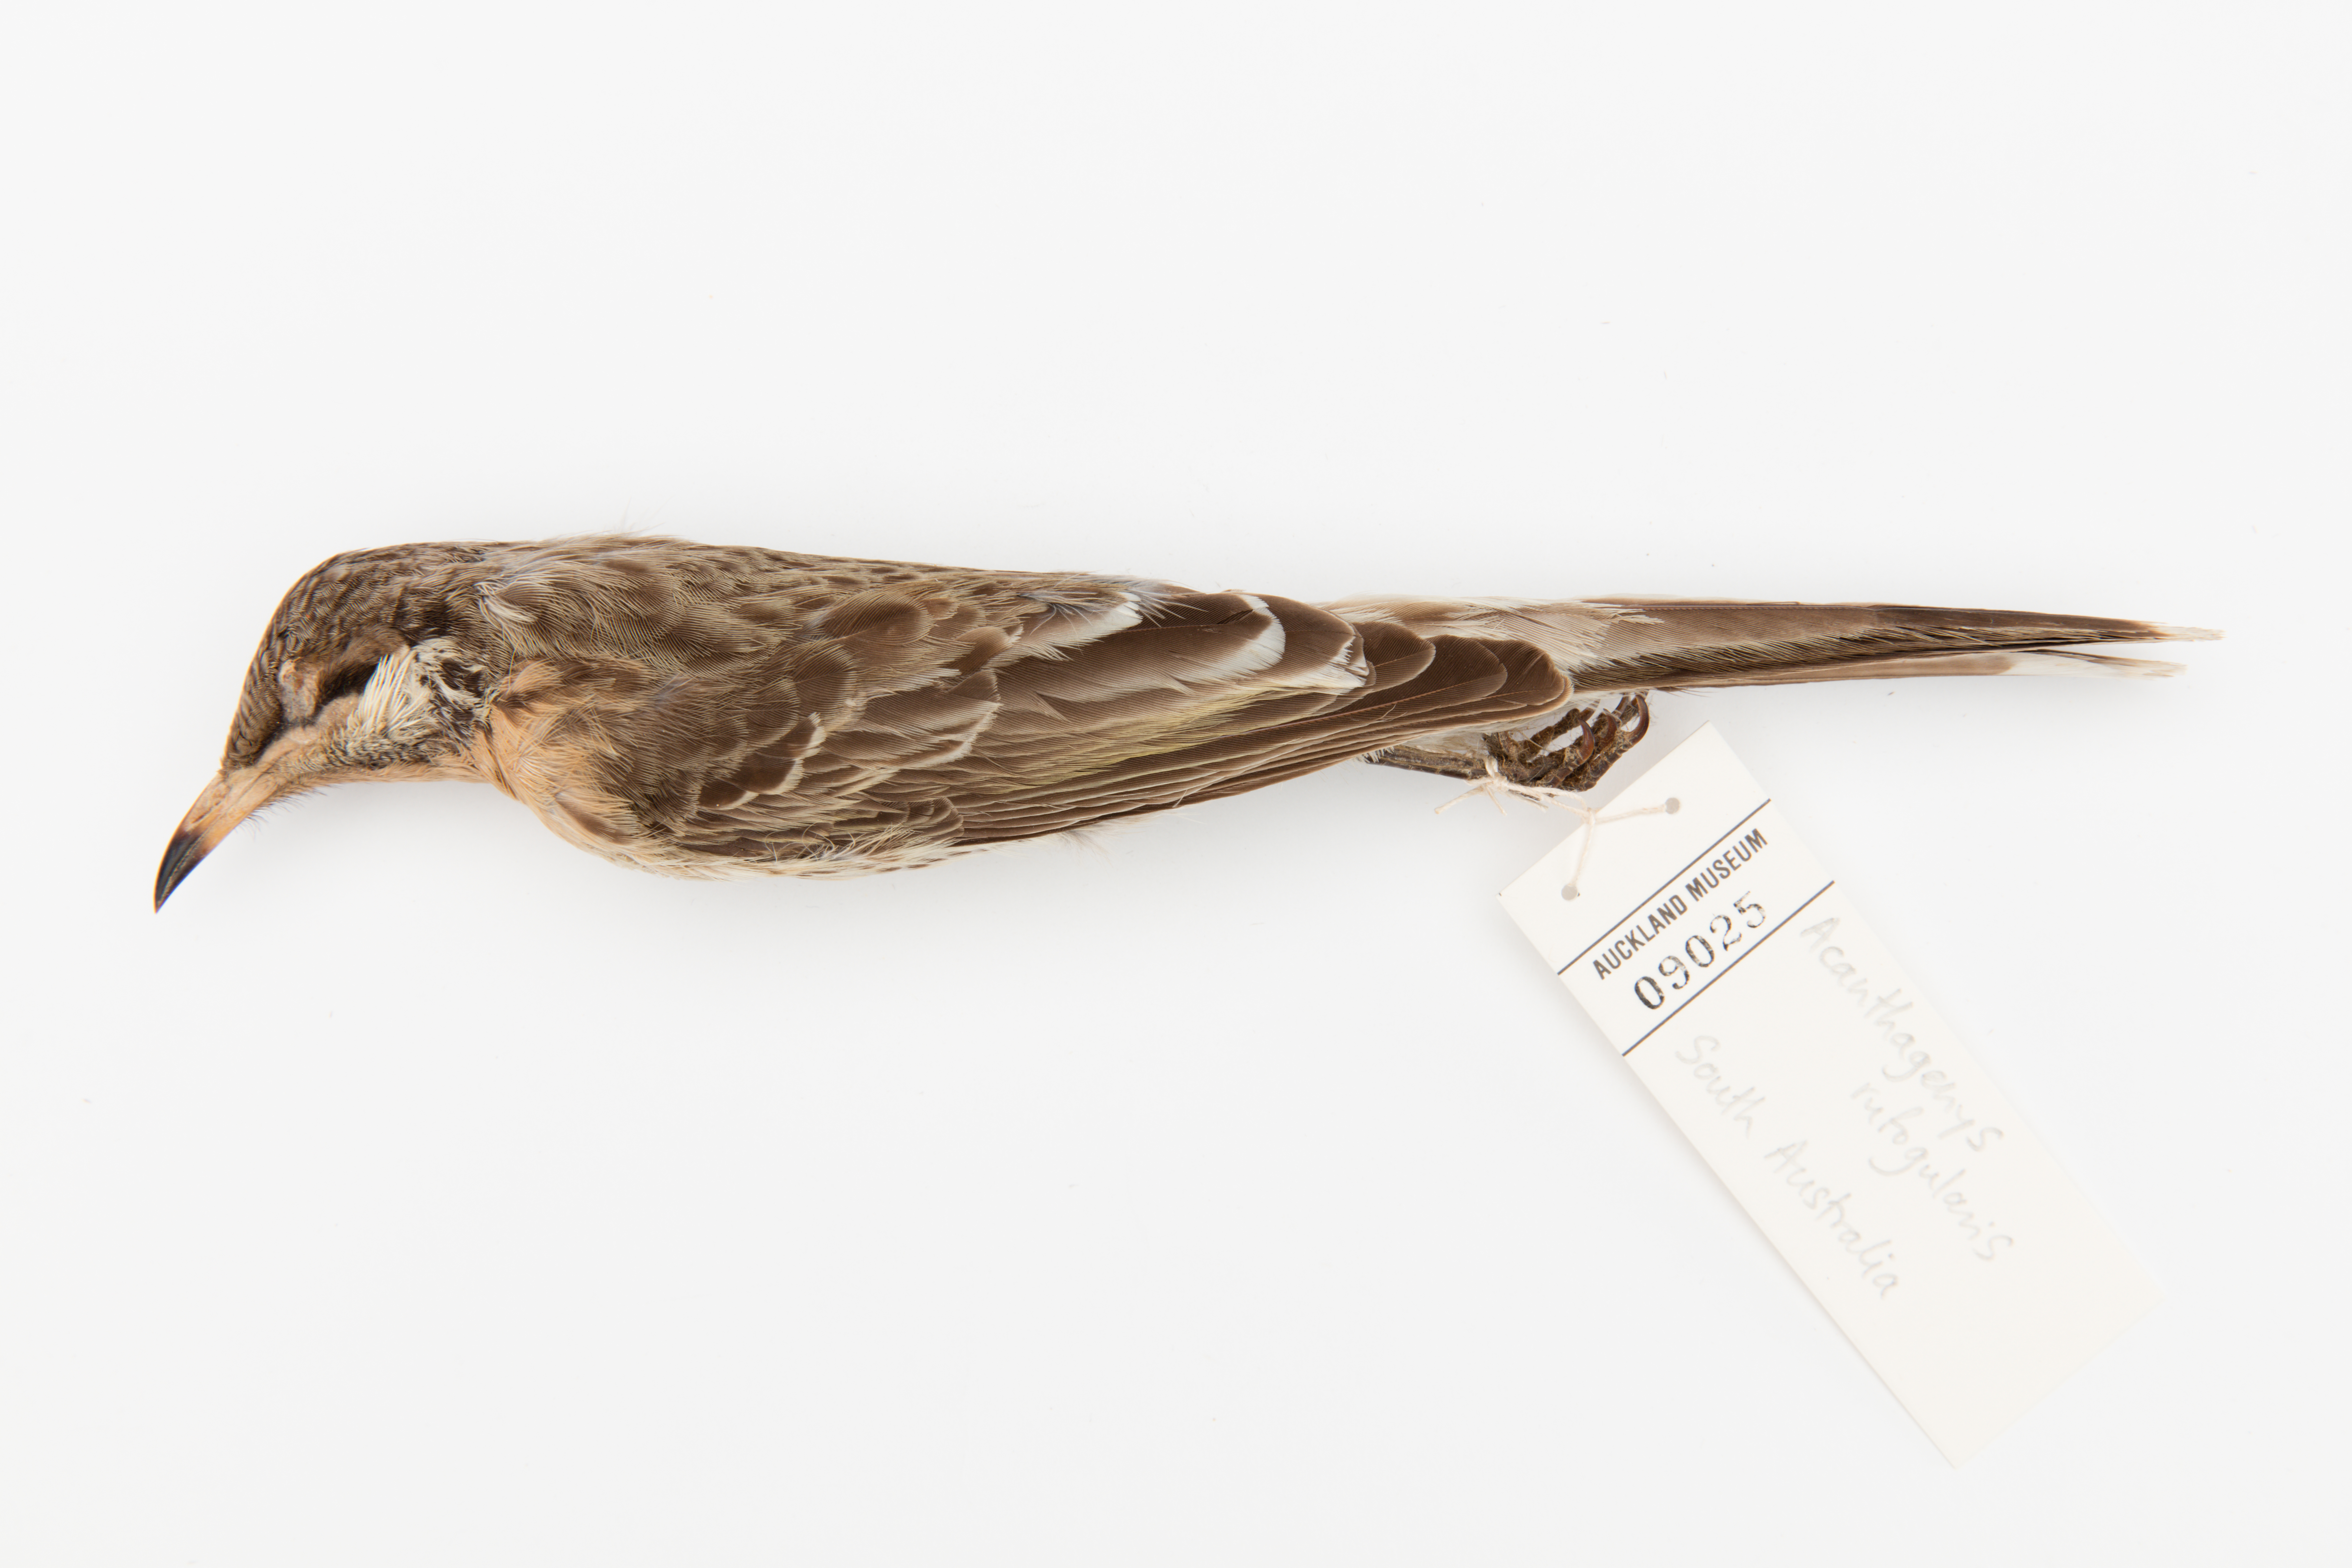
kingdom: Animalia
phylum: Chordata
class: Aves
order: Passeriformes
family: Meliphagidae
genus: Acanthagenys
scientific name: Acanthagenys rufogularis
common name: Spiny-cheeked honeyeater
